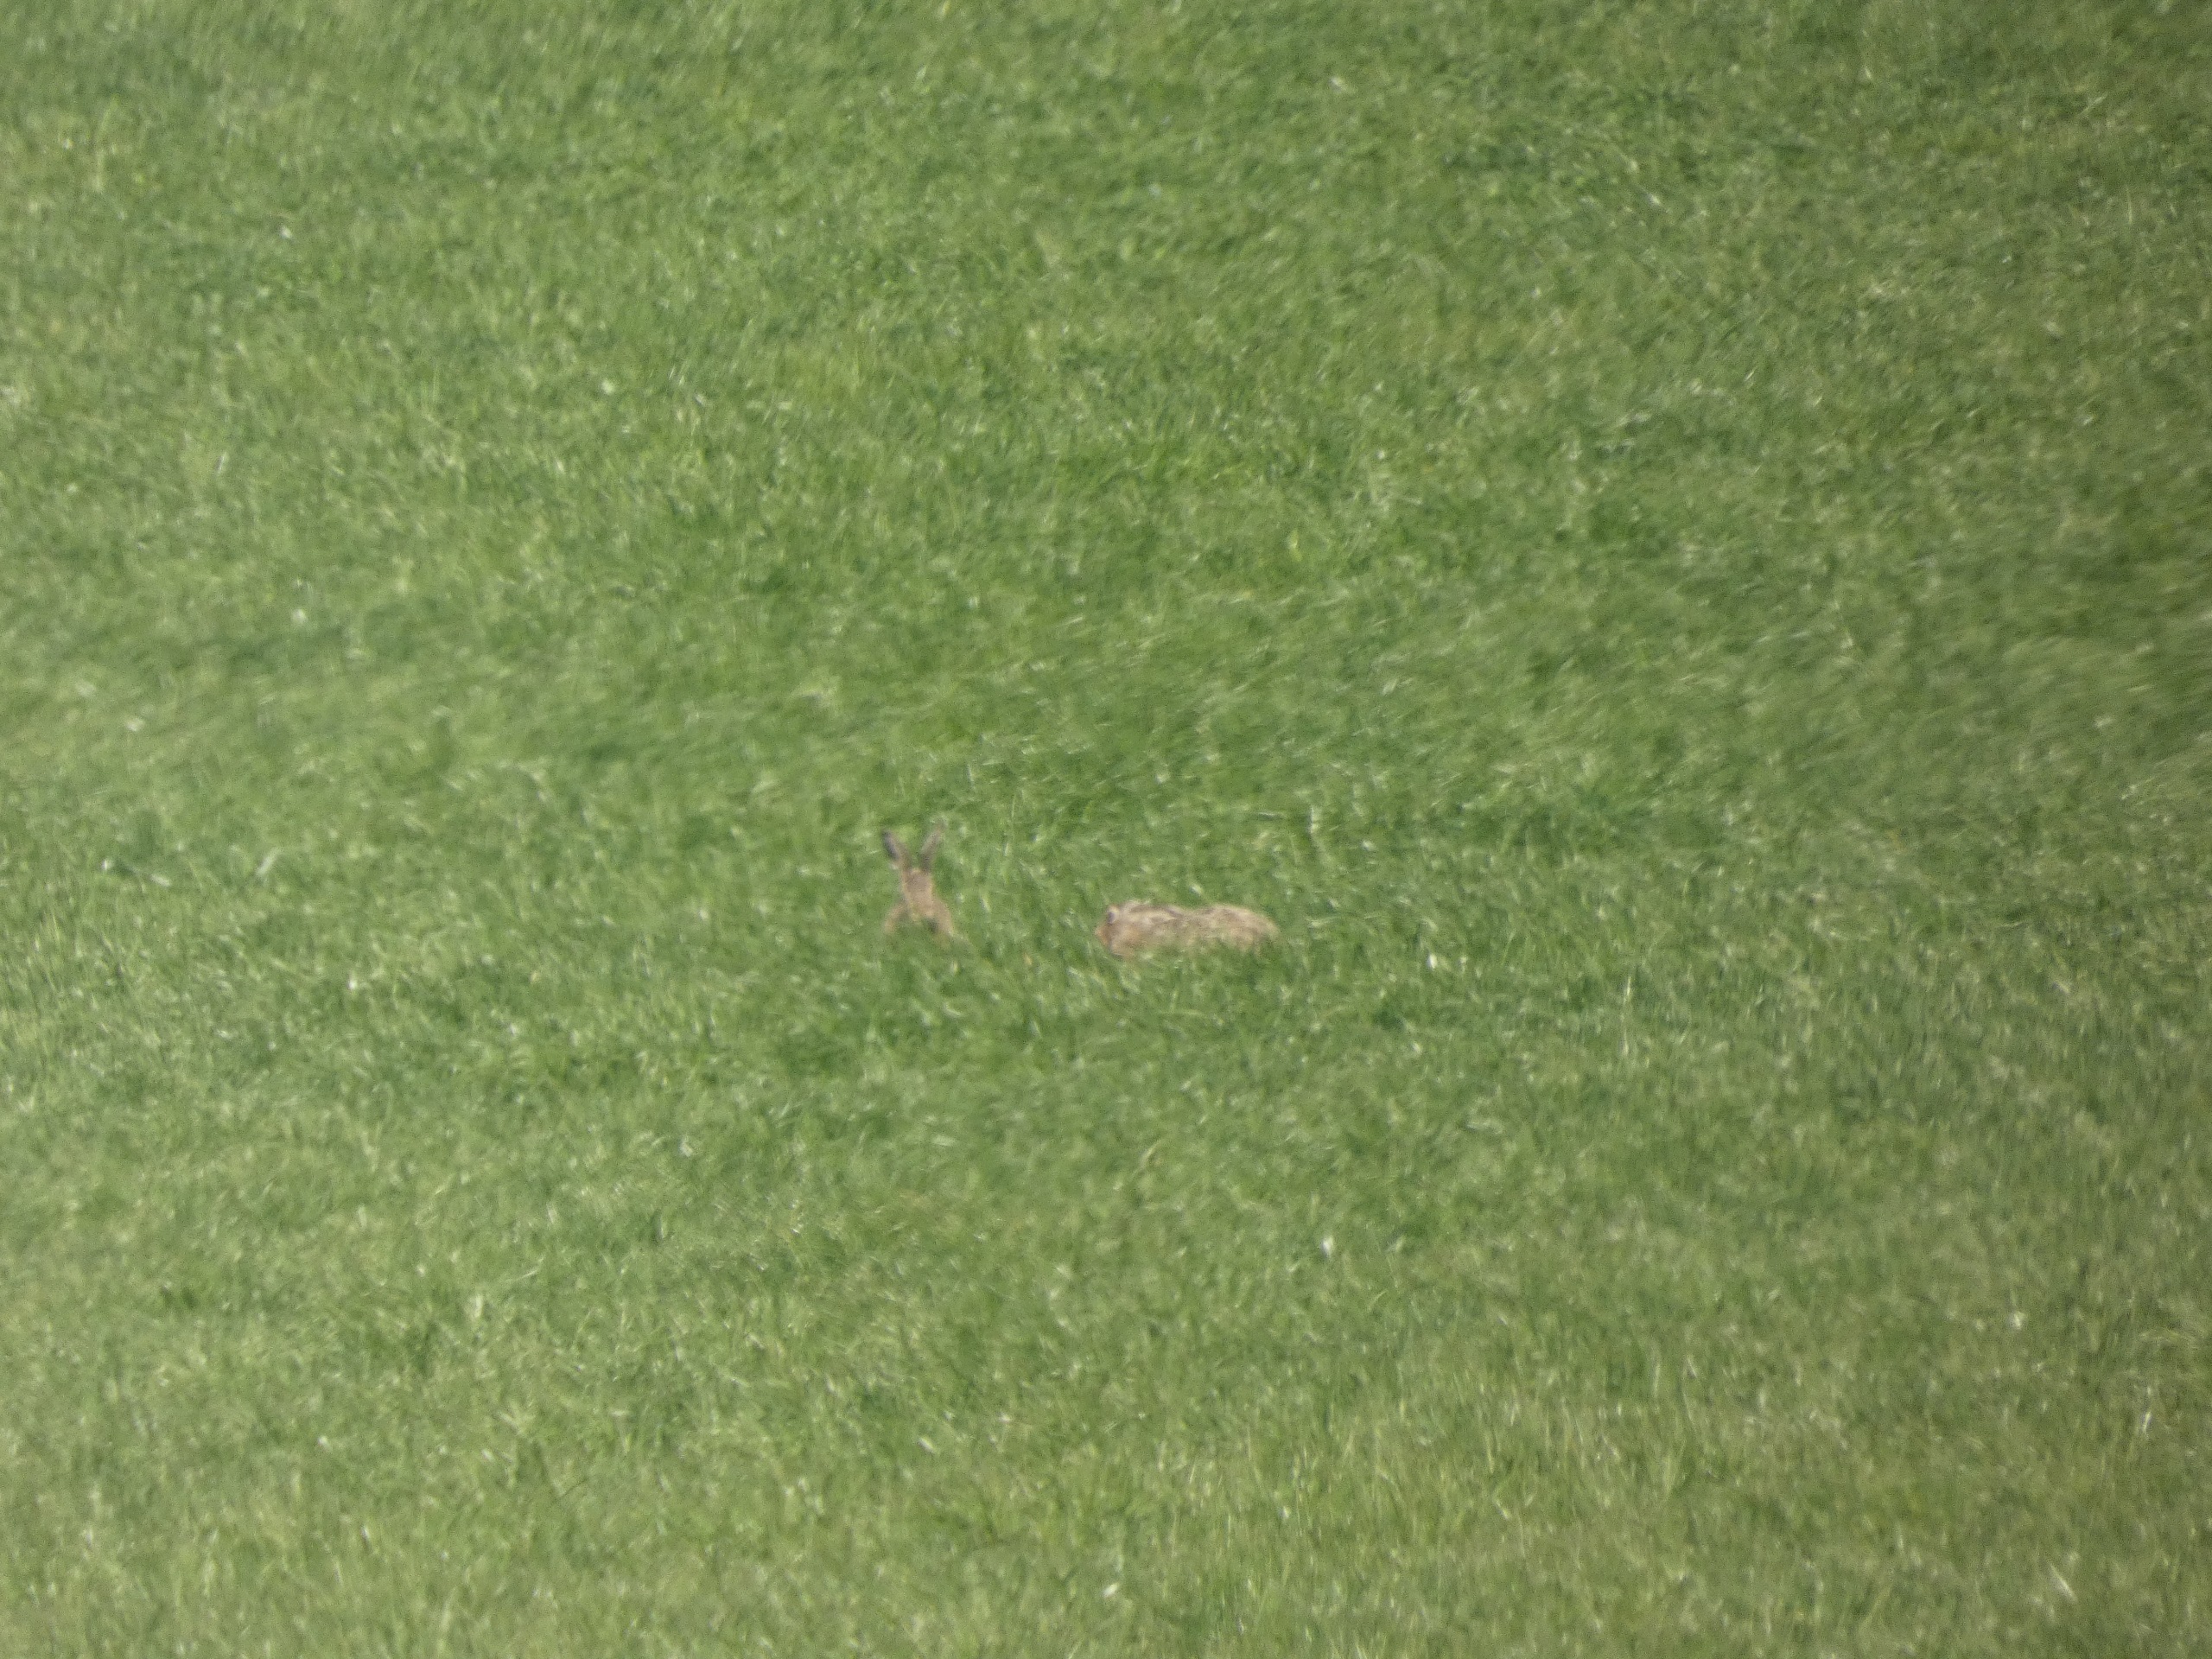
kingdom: Animalia
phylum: Chordata
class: Mammalia
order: Lagomorpha
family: Leporidae
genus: Lepus
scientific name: Lepus europaeus
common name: Hare
